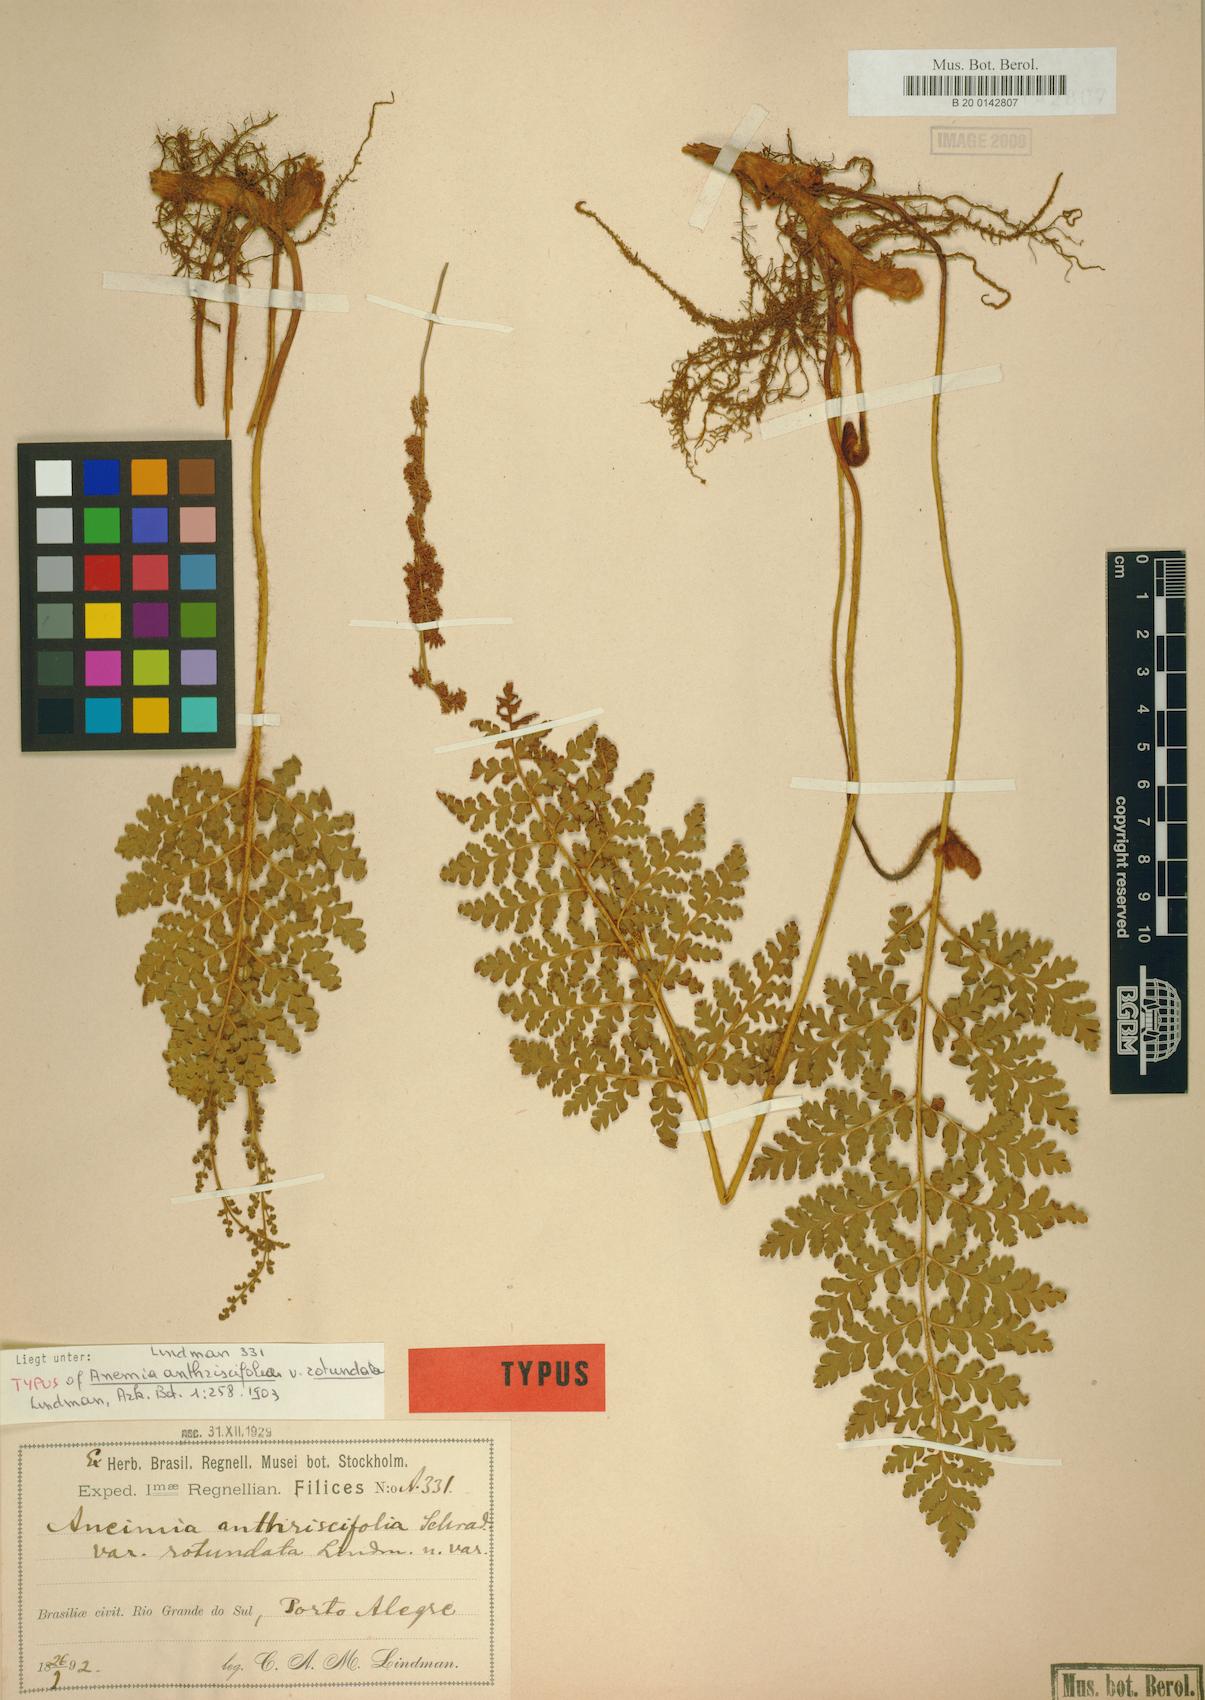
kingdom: Plantae
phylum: Tracheophyta
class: Polypodiopsida
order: Schizaeales
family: Anemiaceae
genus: Anemia
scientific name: Anemia tomentosa
